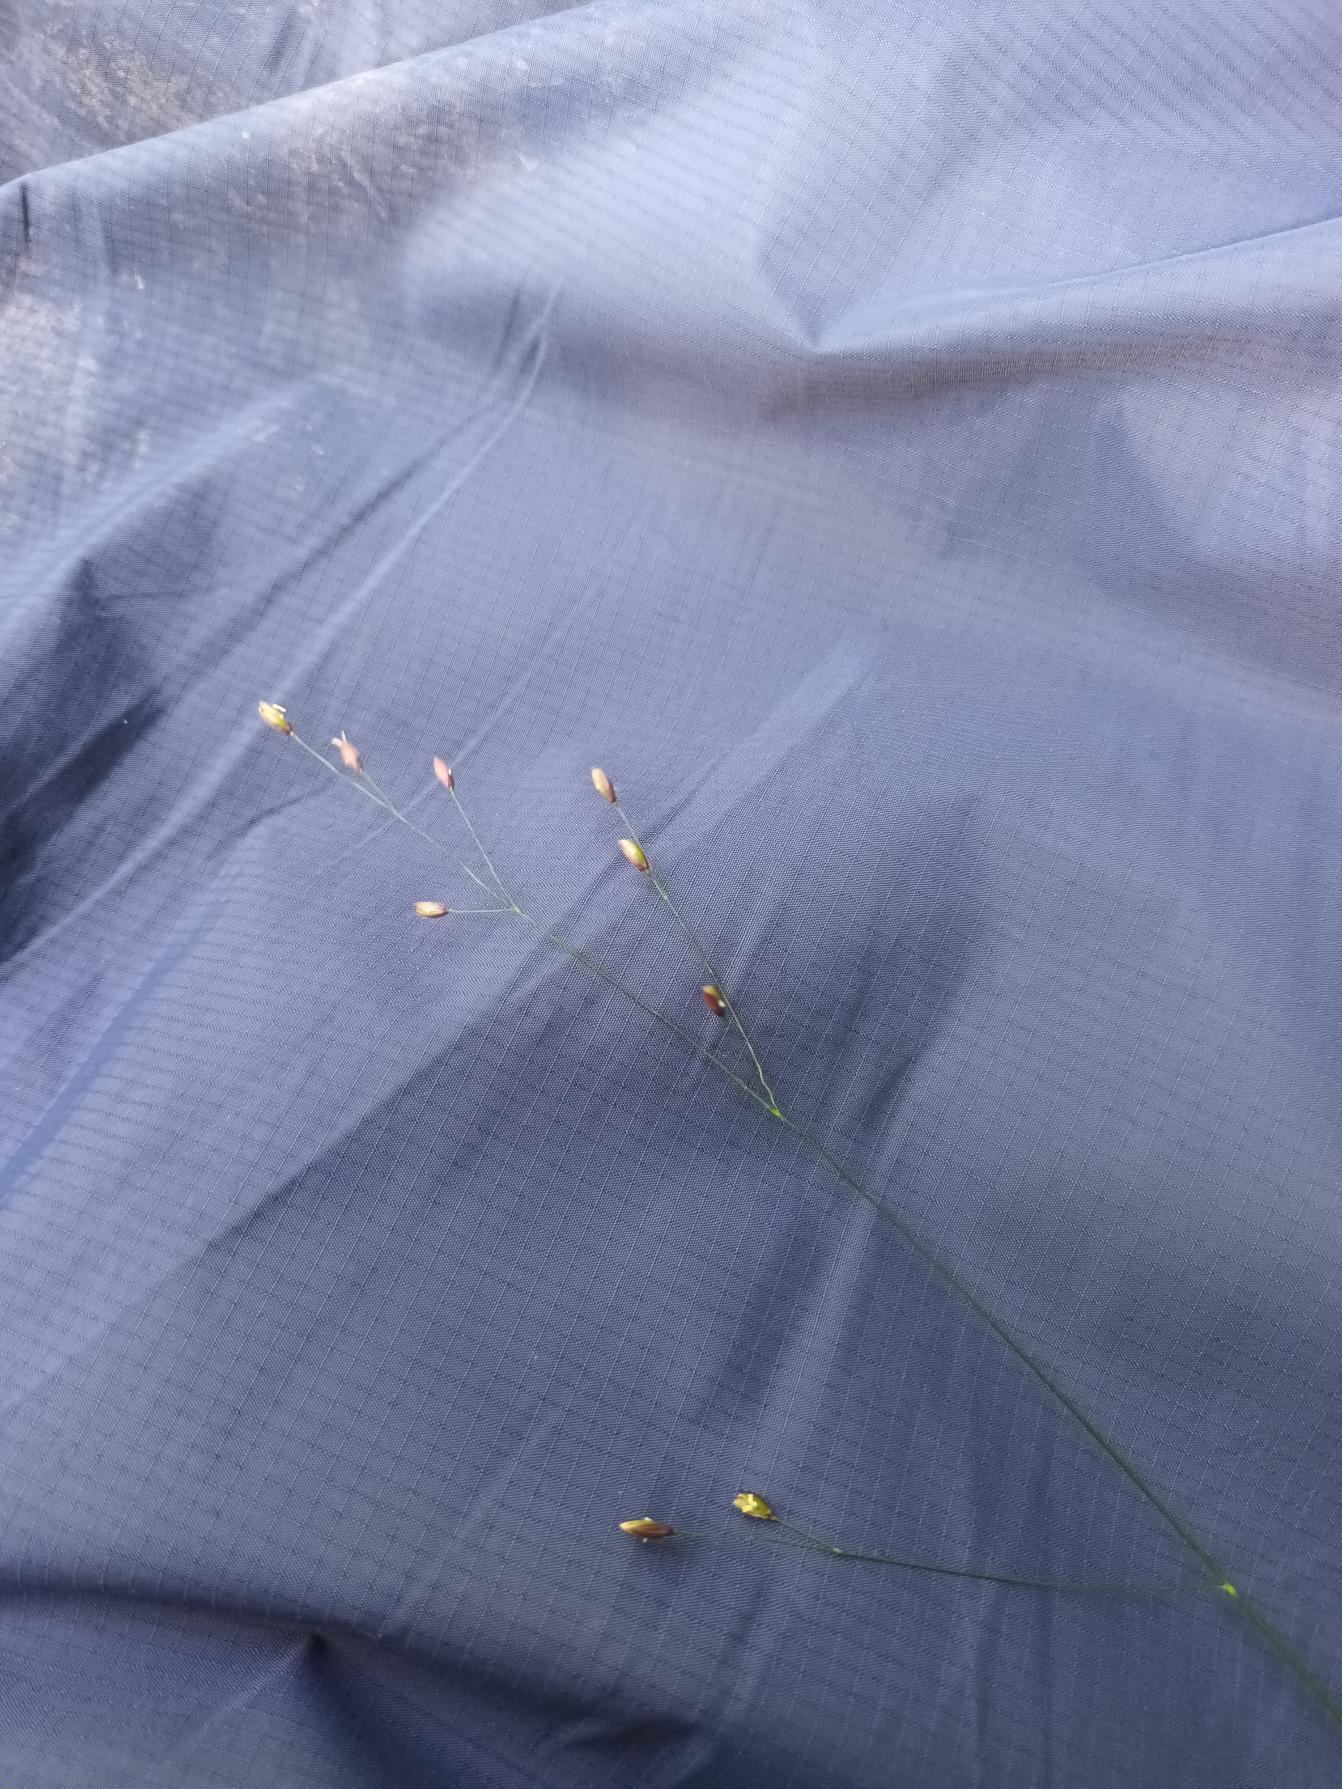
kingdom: Plantae
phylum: Tracheophyta
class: Liliopsida
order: Poales
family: Poaceae
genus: Melica
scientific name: Melica uniflora
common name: Enblomstret flitteraks
